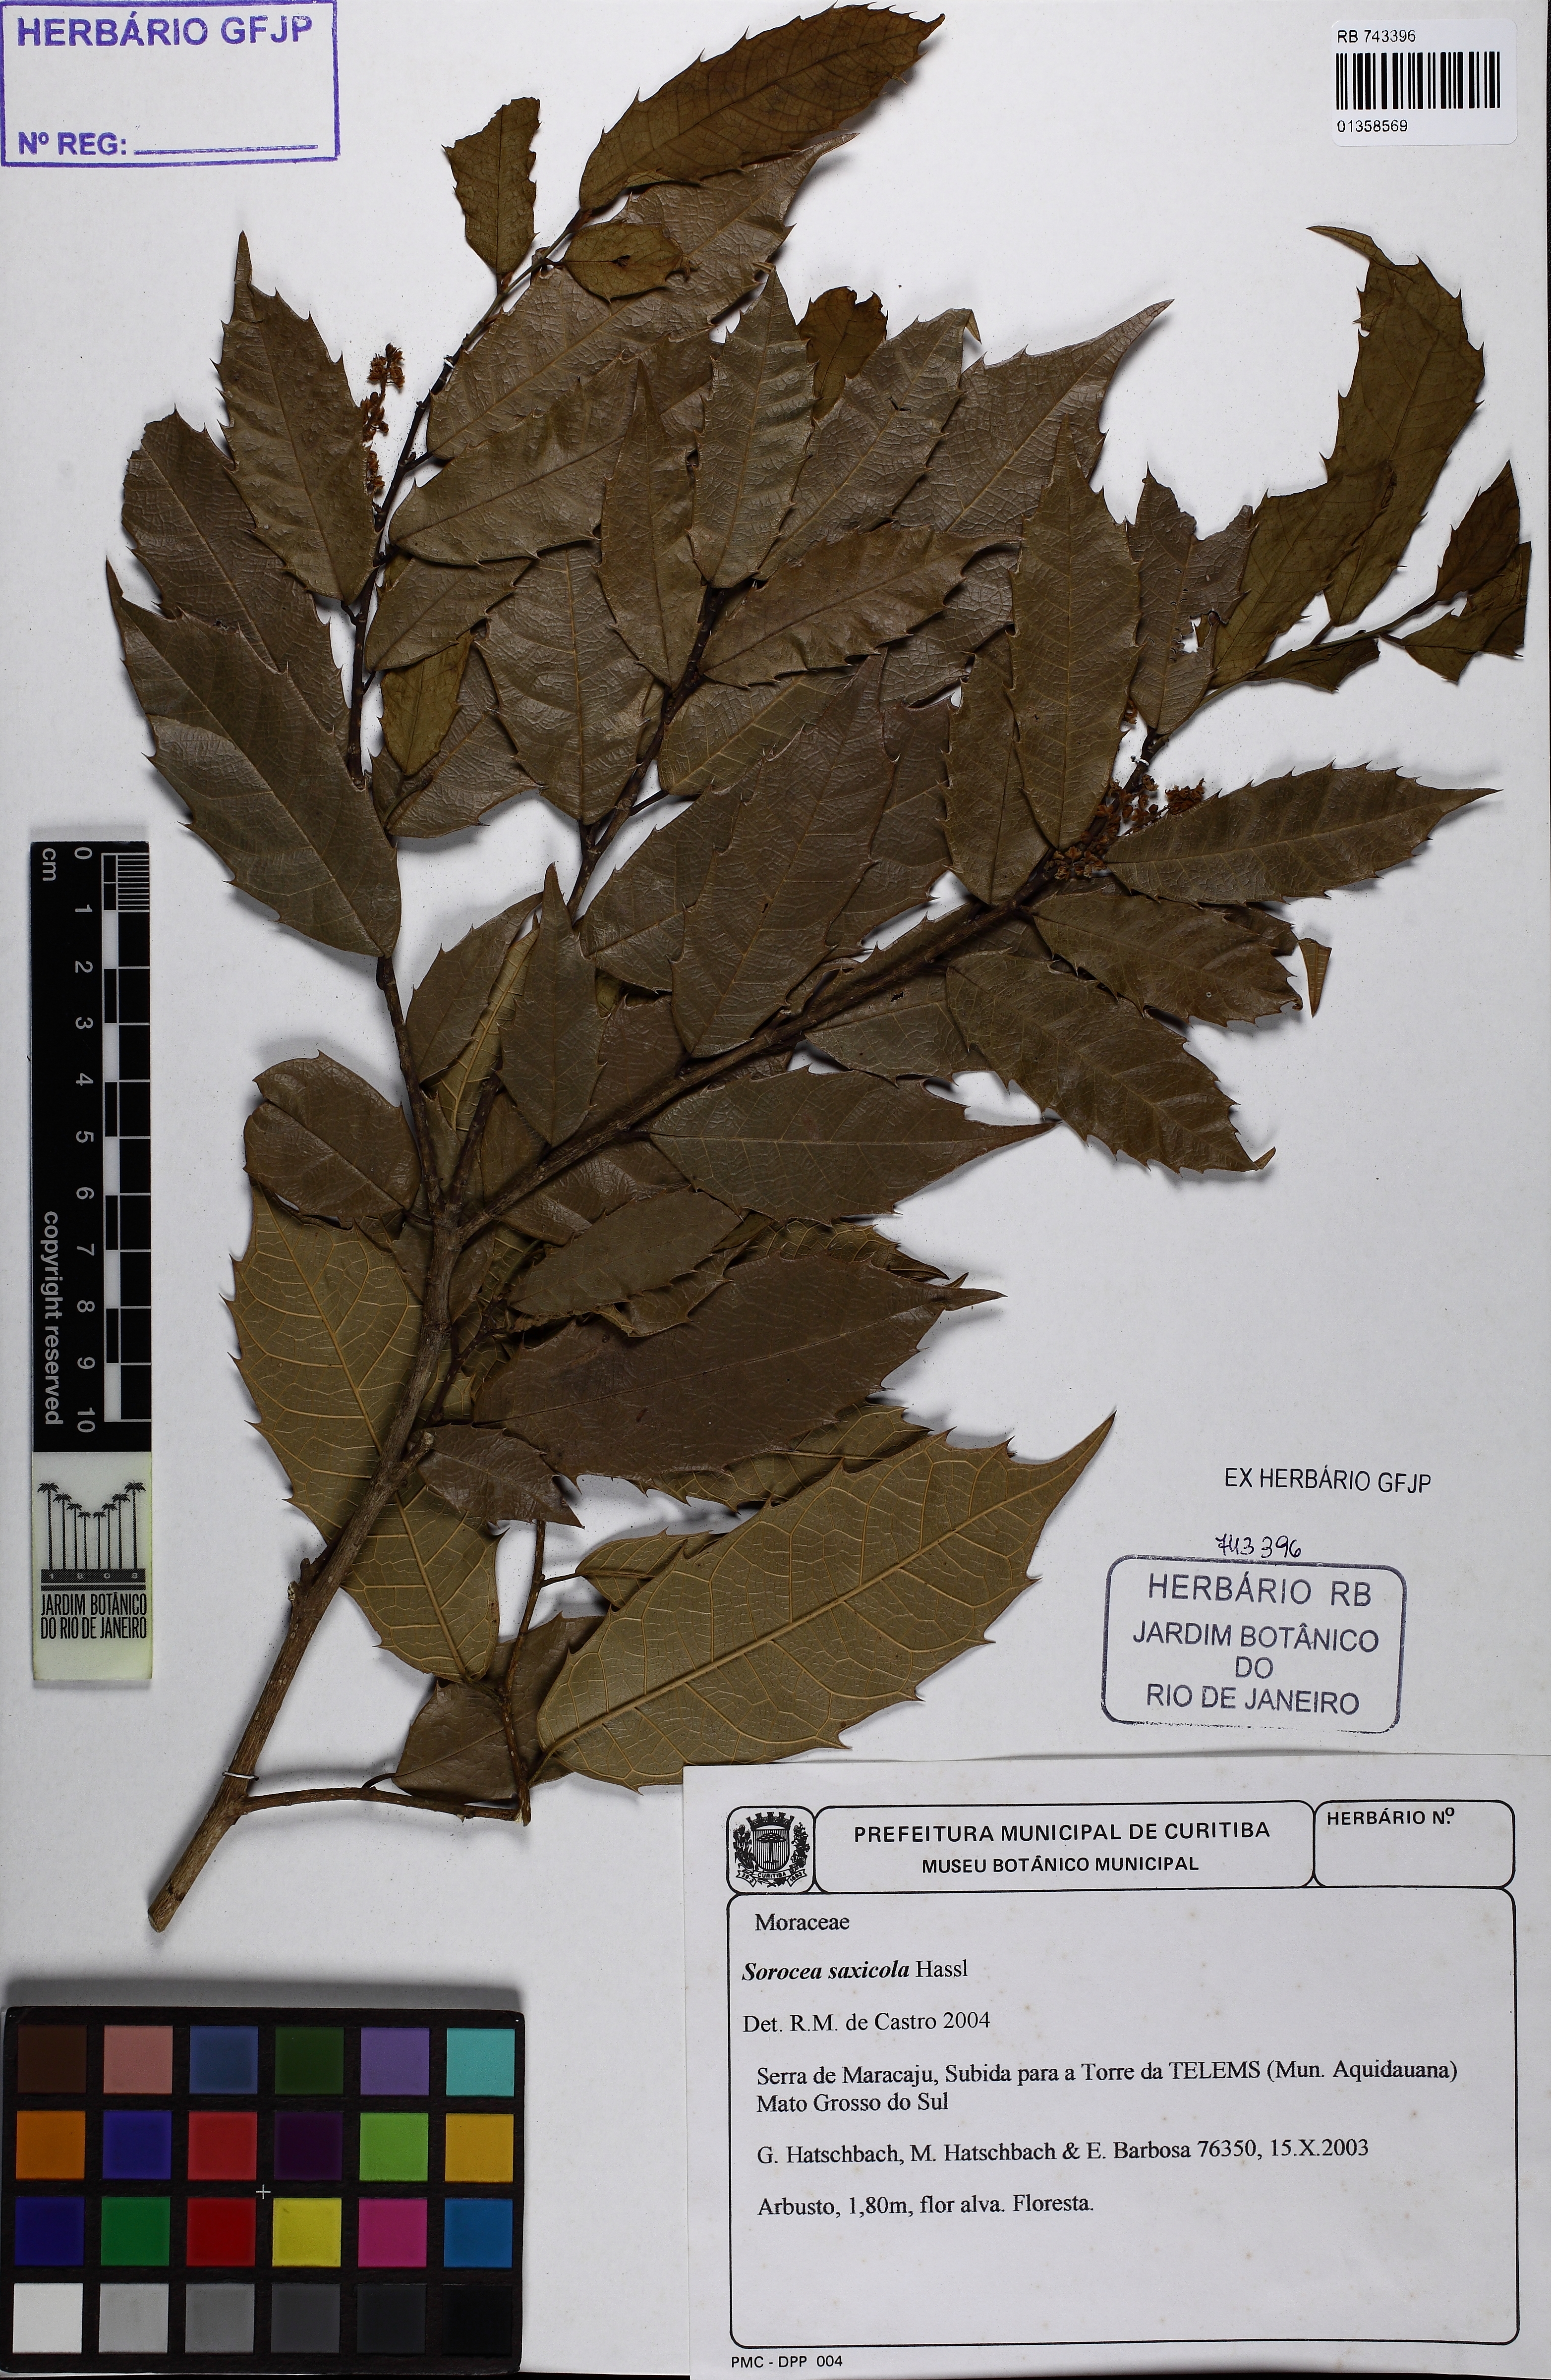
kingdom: Plantae
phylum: Tracheophyta
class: Magnoliopsida
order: Rosales
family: Moraceae
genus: Sorocea
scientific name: Sorocea sprucei
